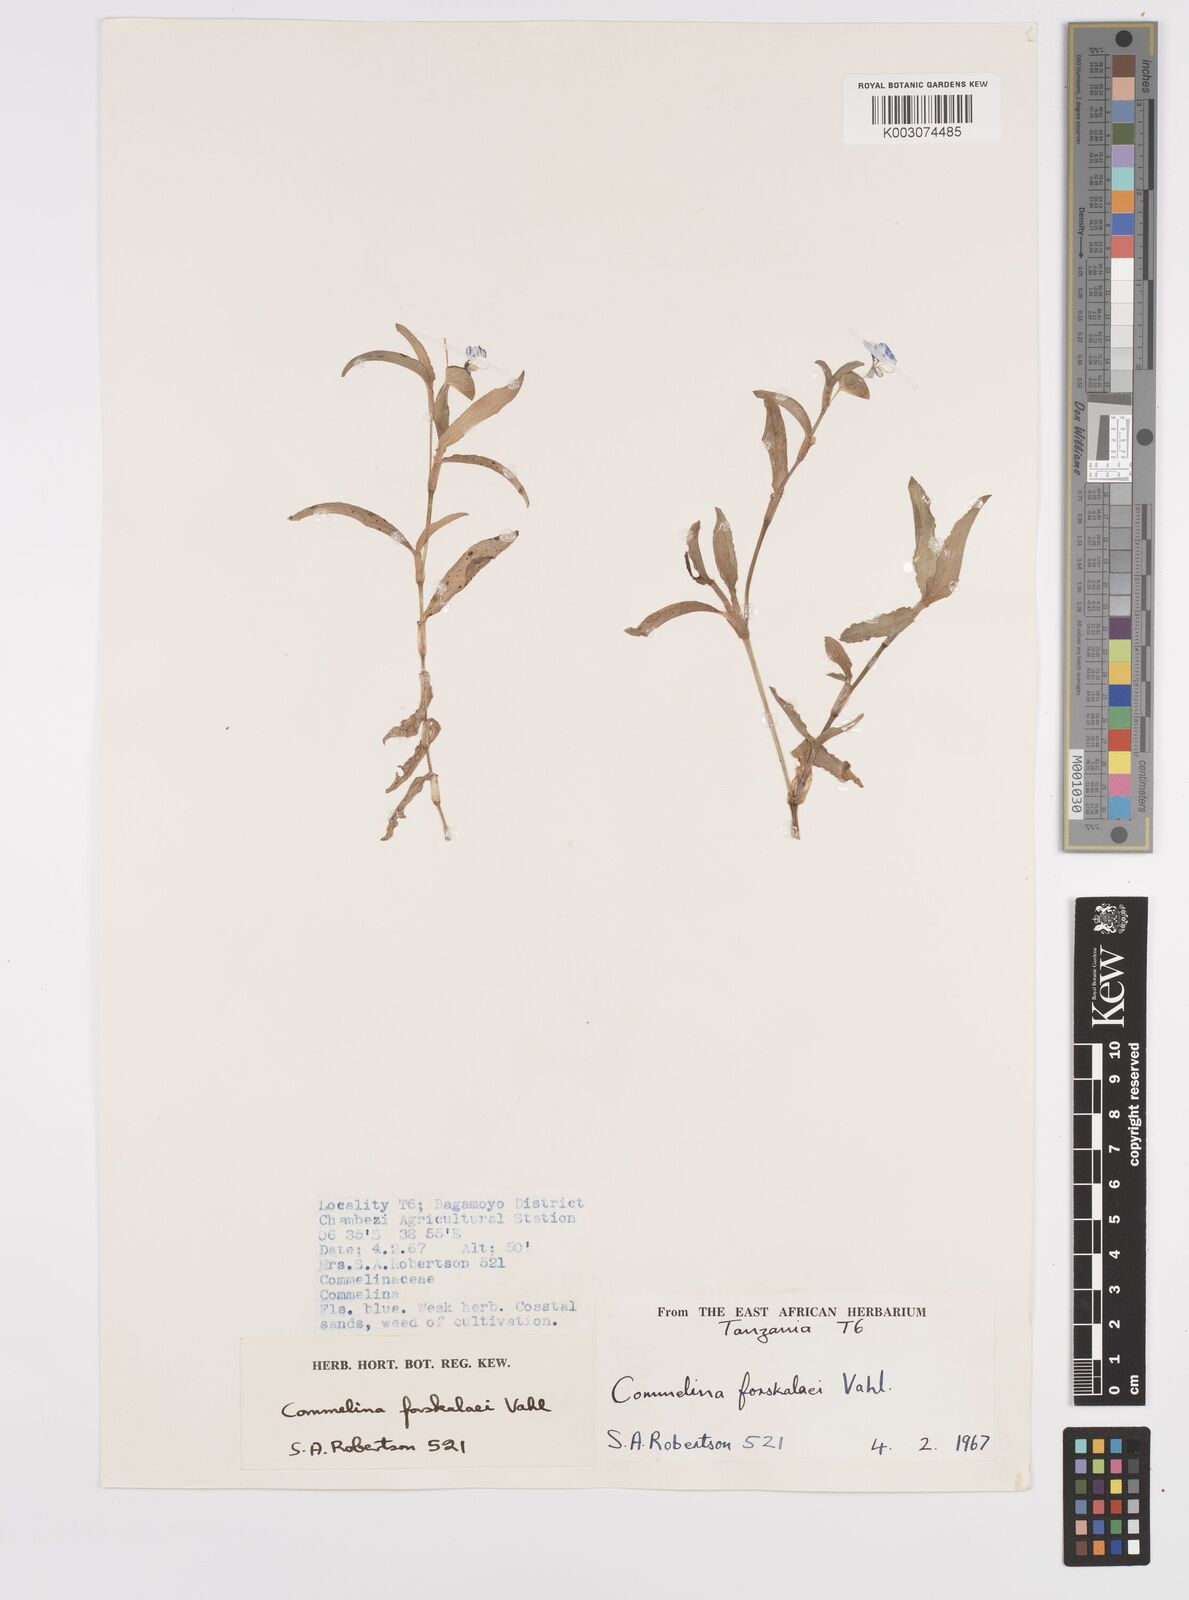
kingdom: Plantae
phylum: Tracheophyta
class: Liliopsida
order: Commelinales
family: Commelinaceae
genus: Commelina
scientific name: Commelina
